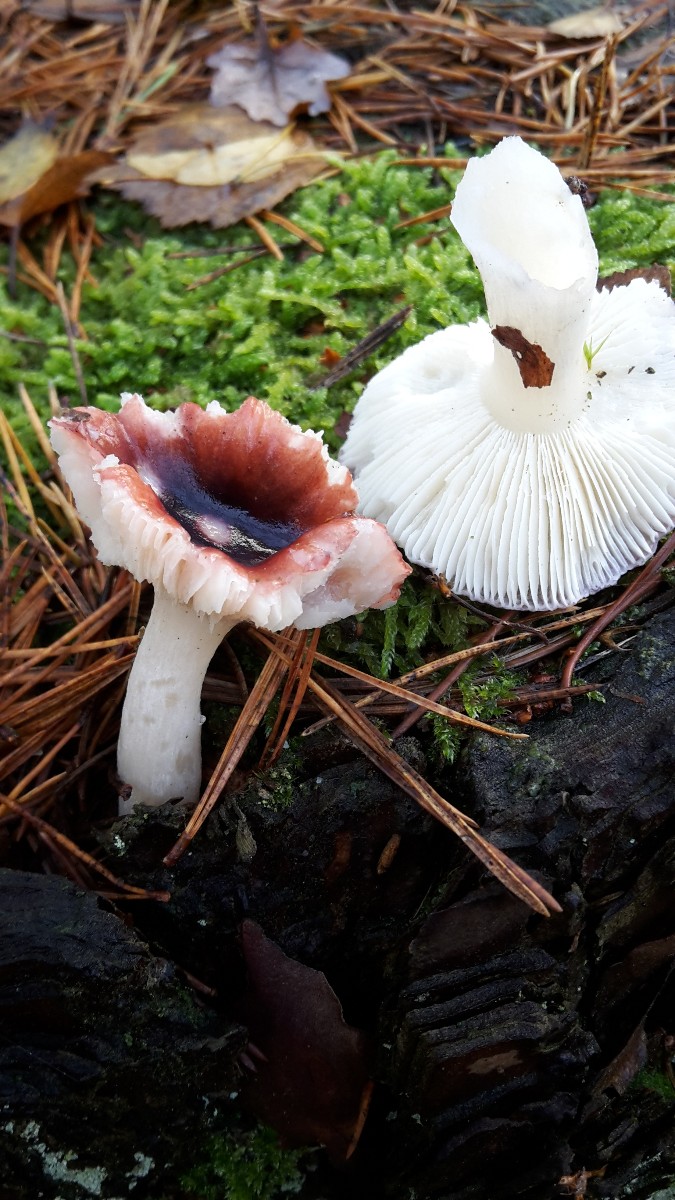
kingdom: Fungi
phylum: Basidiomycota
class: Agaricomycetes
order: Russulales
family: Russulaceae
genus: Russula
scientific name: Russula atrorubens
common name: sortrød skørhat
